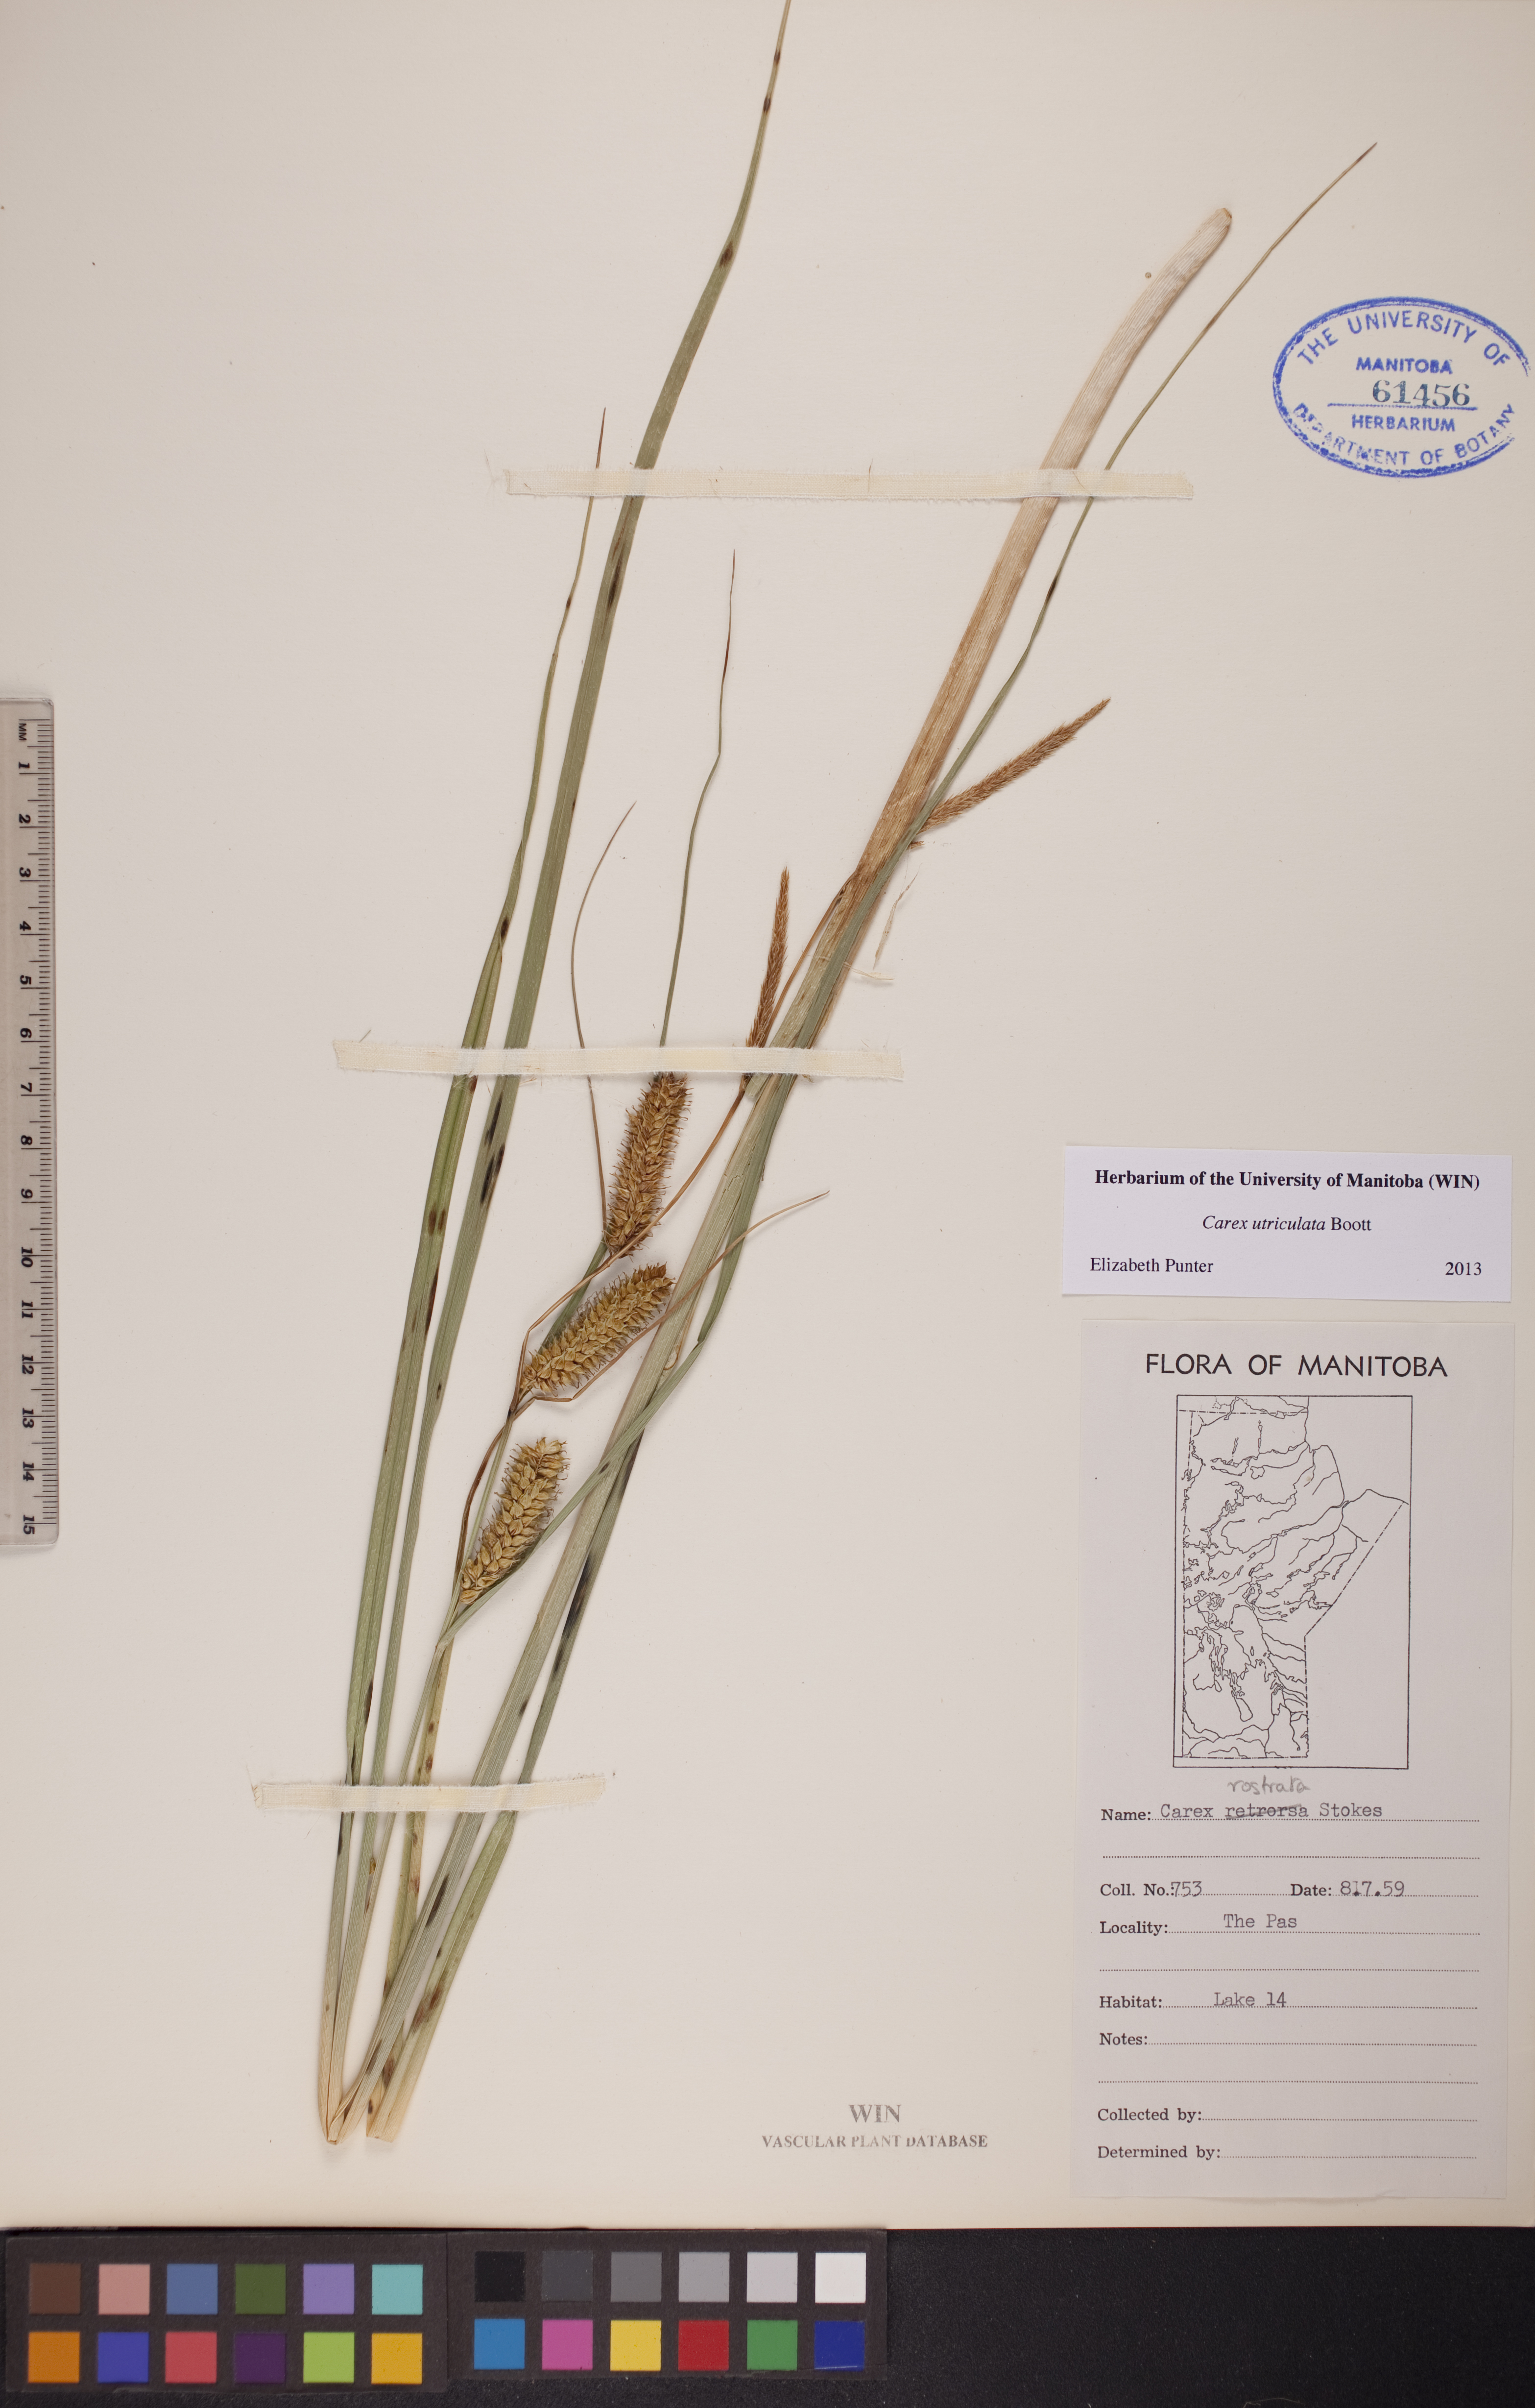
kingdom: Plantae
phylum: Tracheophyta
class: Liliopsida
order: Poales
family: Cyperaceae
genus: Carex
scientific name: Carex utriculata
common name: Beaked sedge
